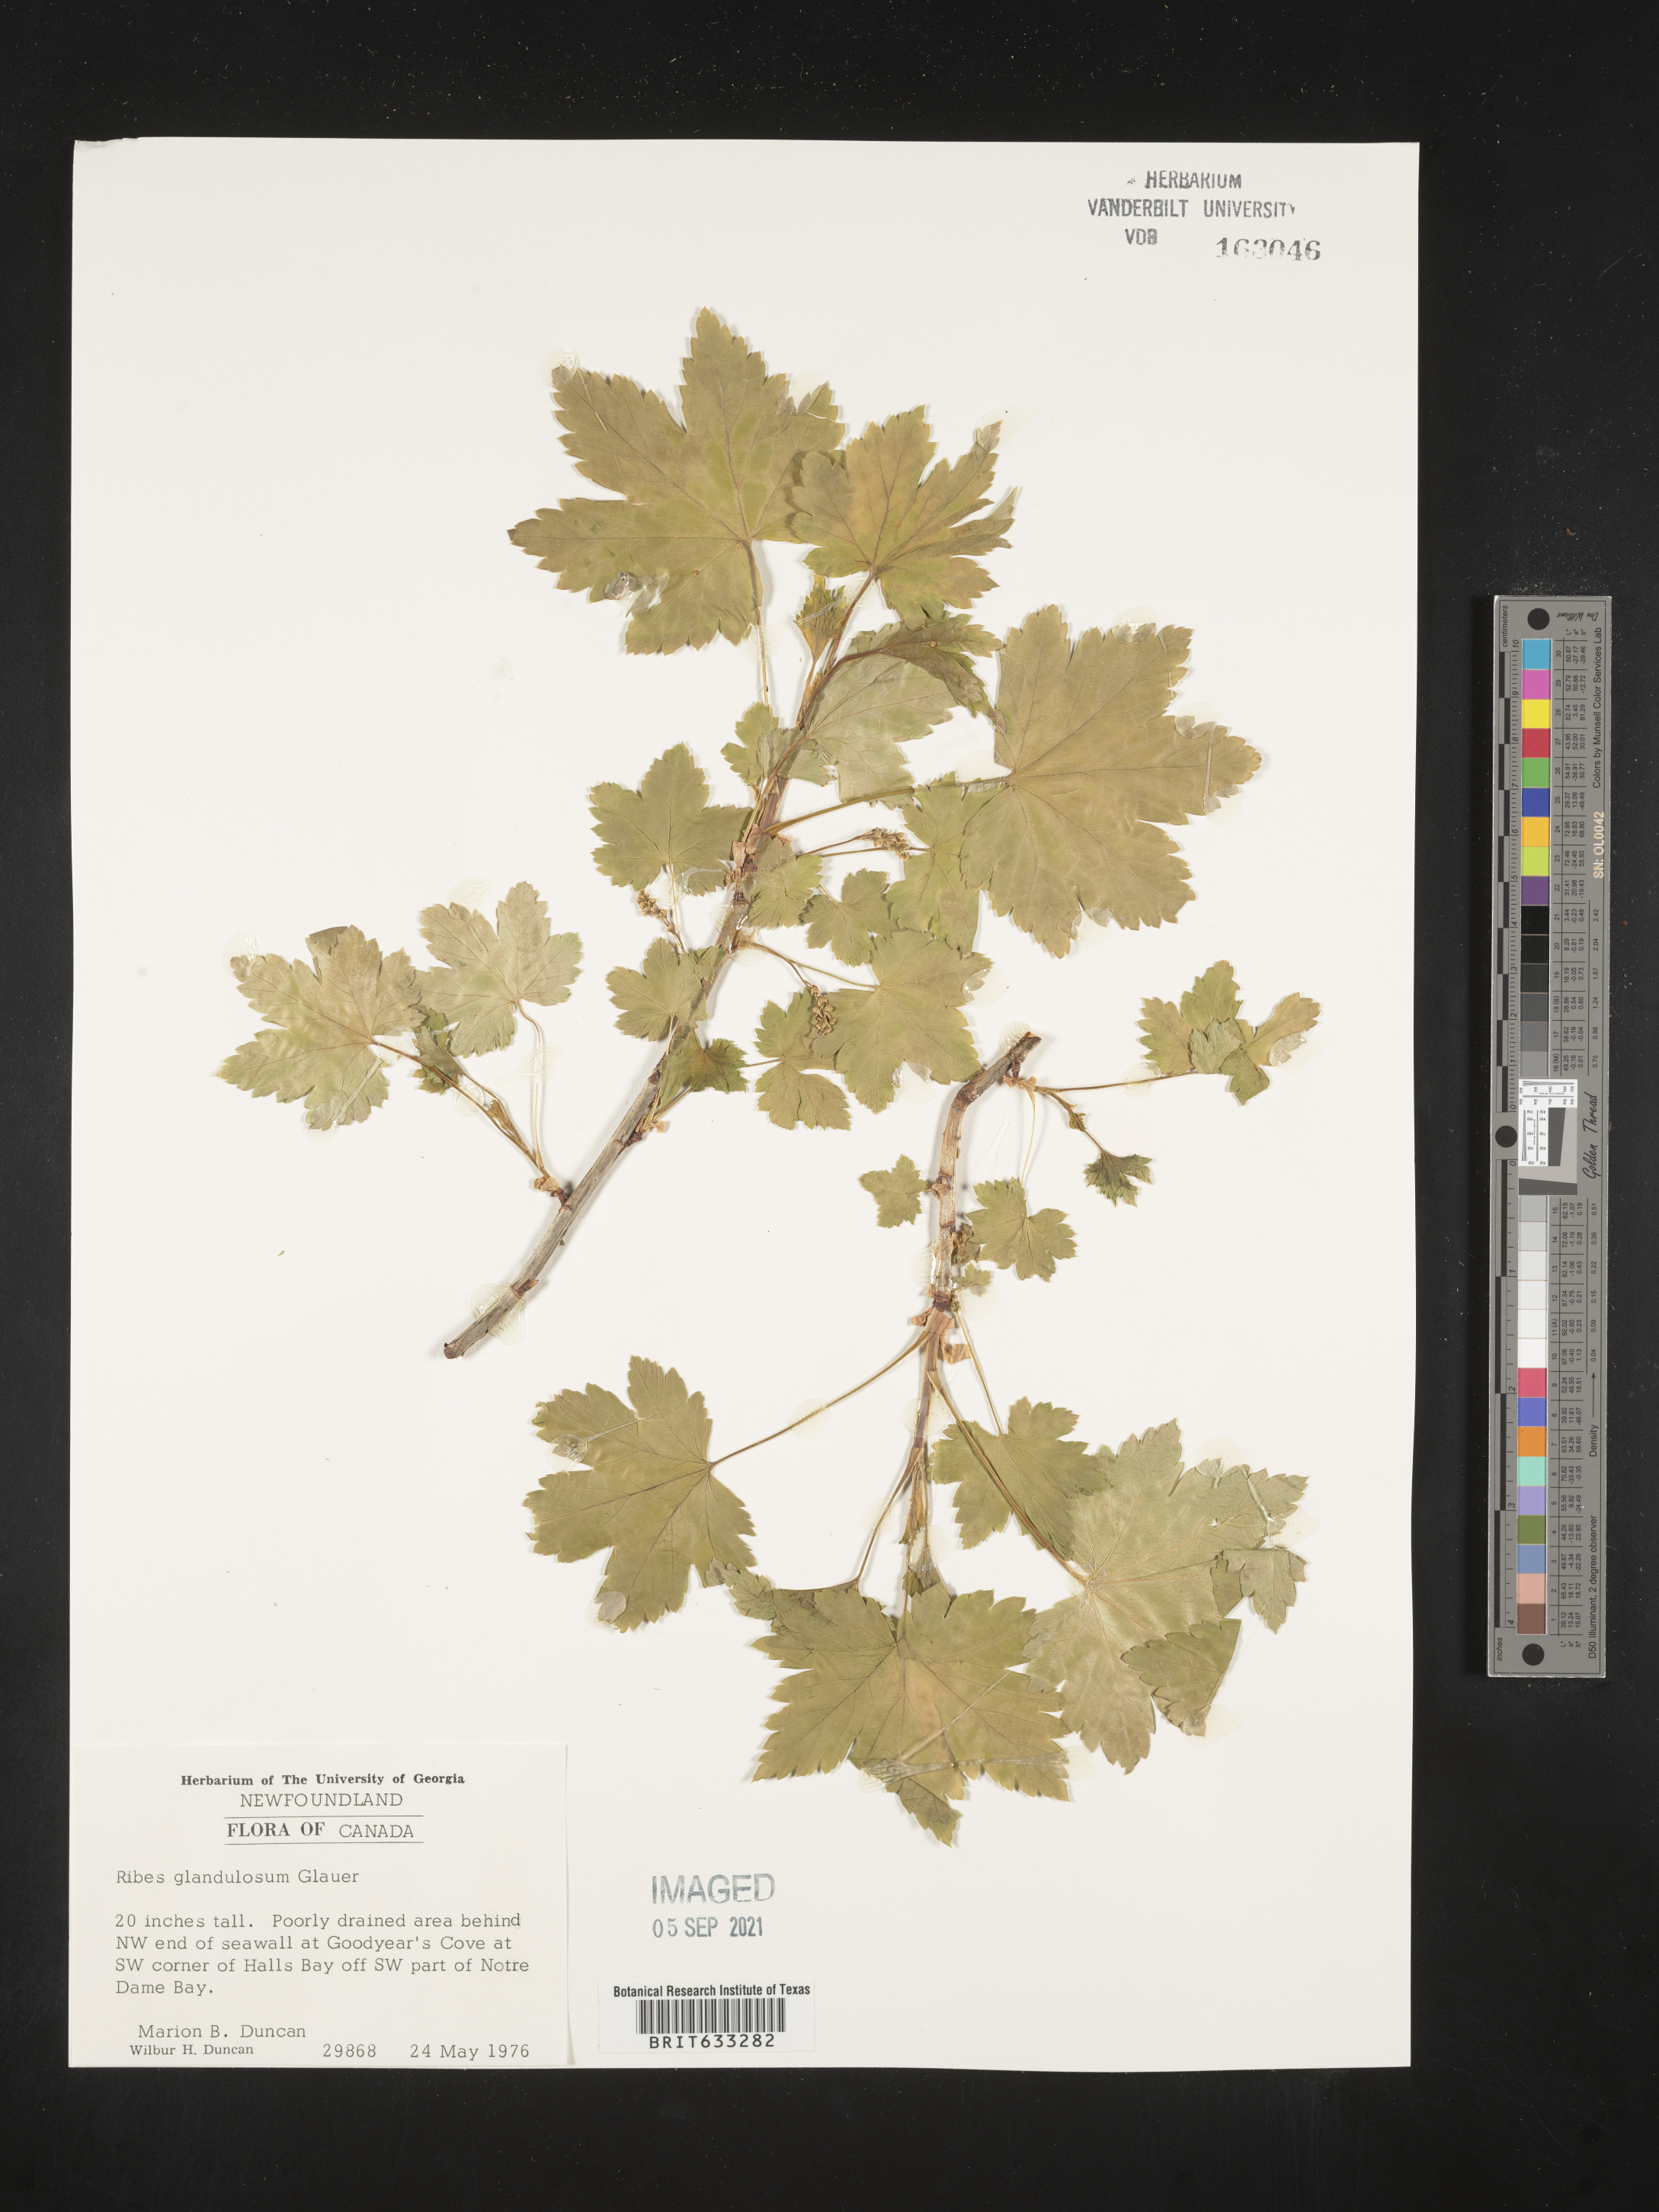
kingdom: Plantae
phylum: Tracheophyta
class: Magnoliopsida
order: Saxifragales
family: Grossulariaceae
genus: Ribes
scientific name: Ribes
